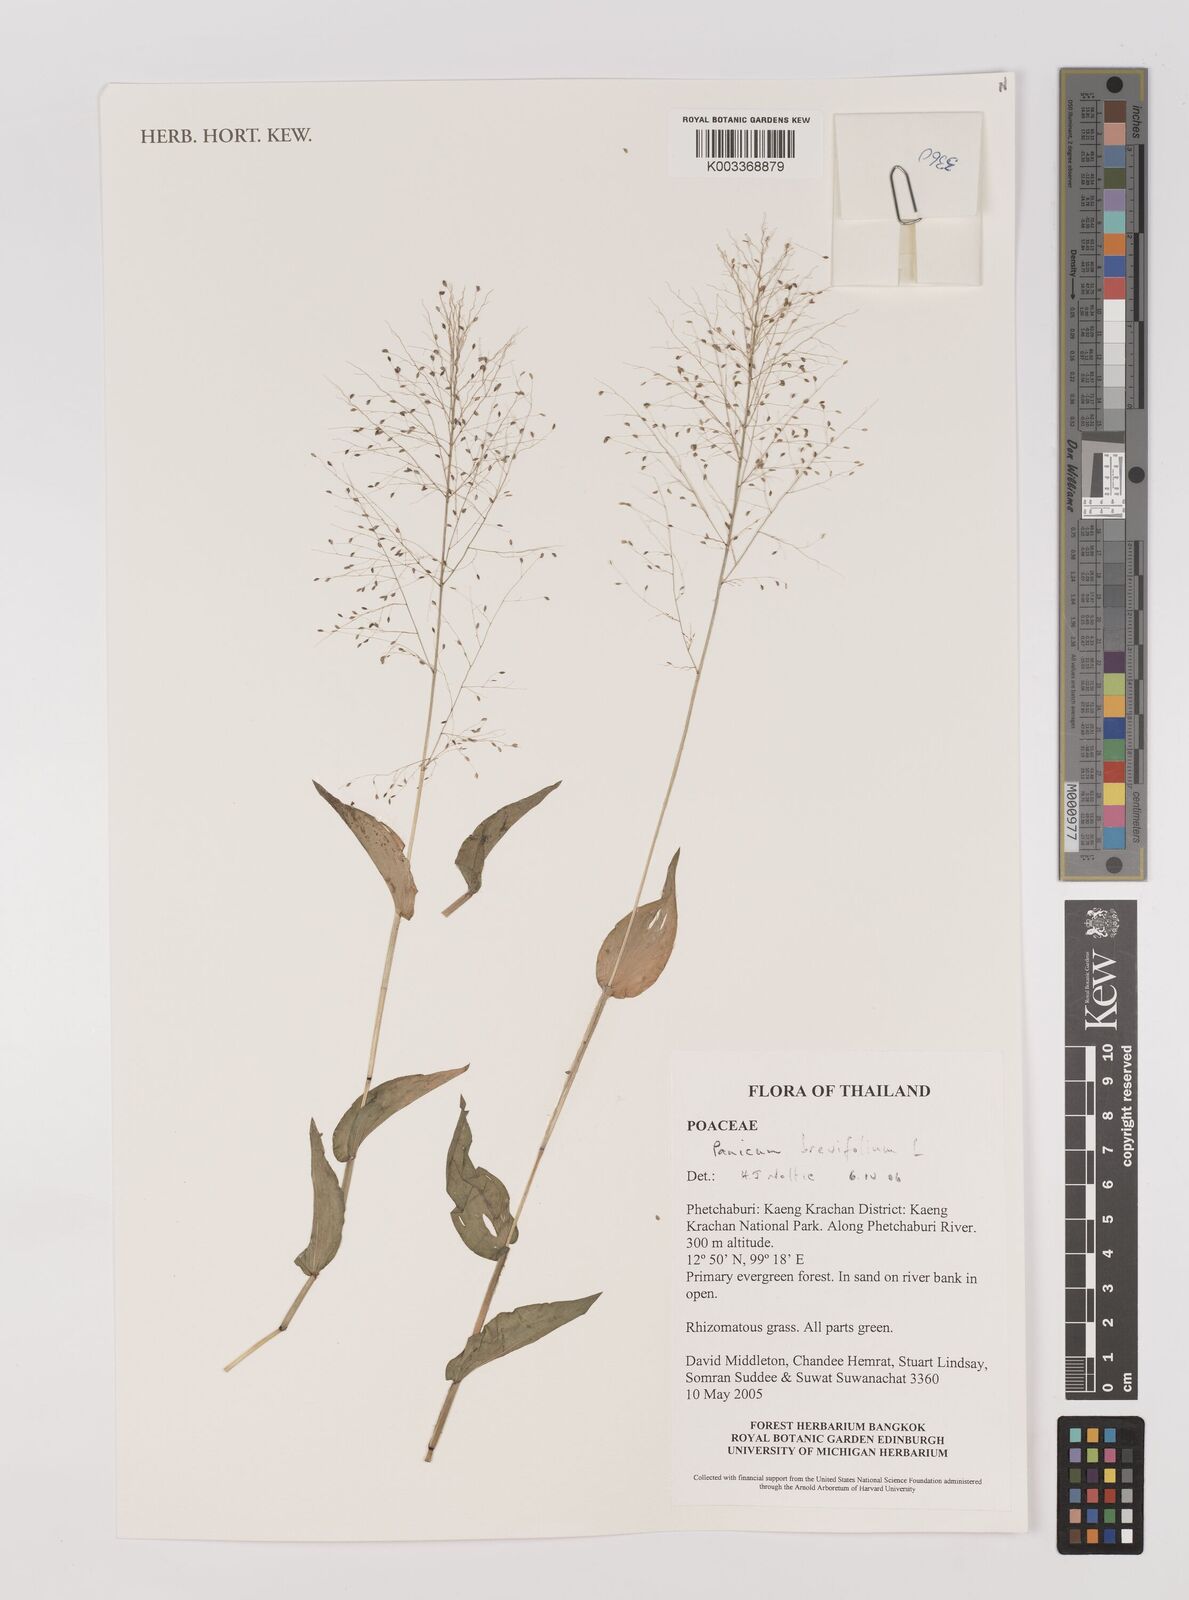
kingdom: Plantae
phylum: Tracheophyta
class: Liliopsida
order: Poales
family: Poaceae
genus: Panicum
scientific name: Panicum brevifolium
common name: Shortleaf panic grass
